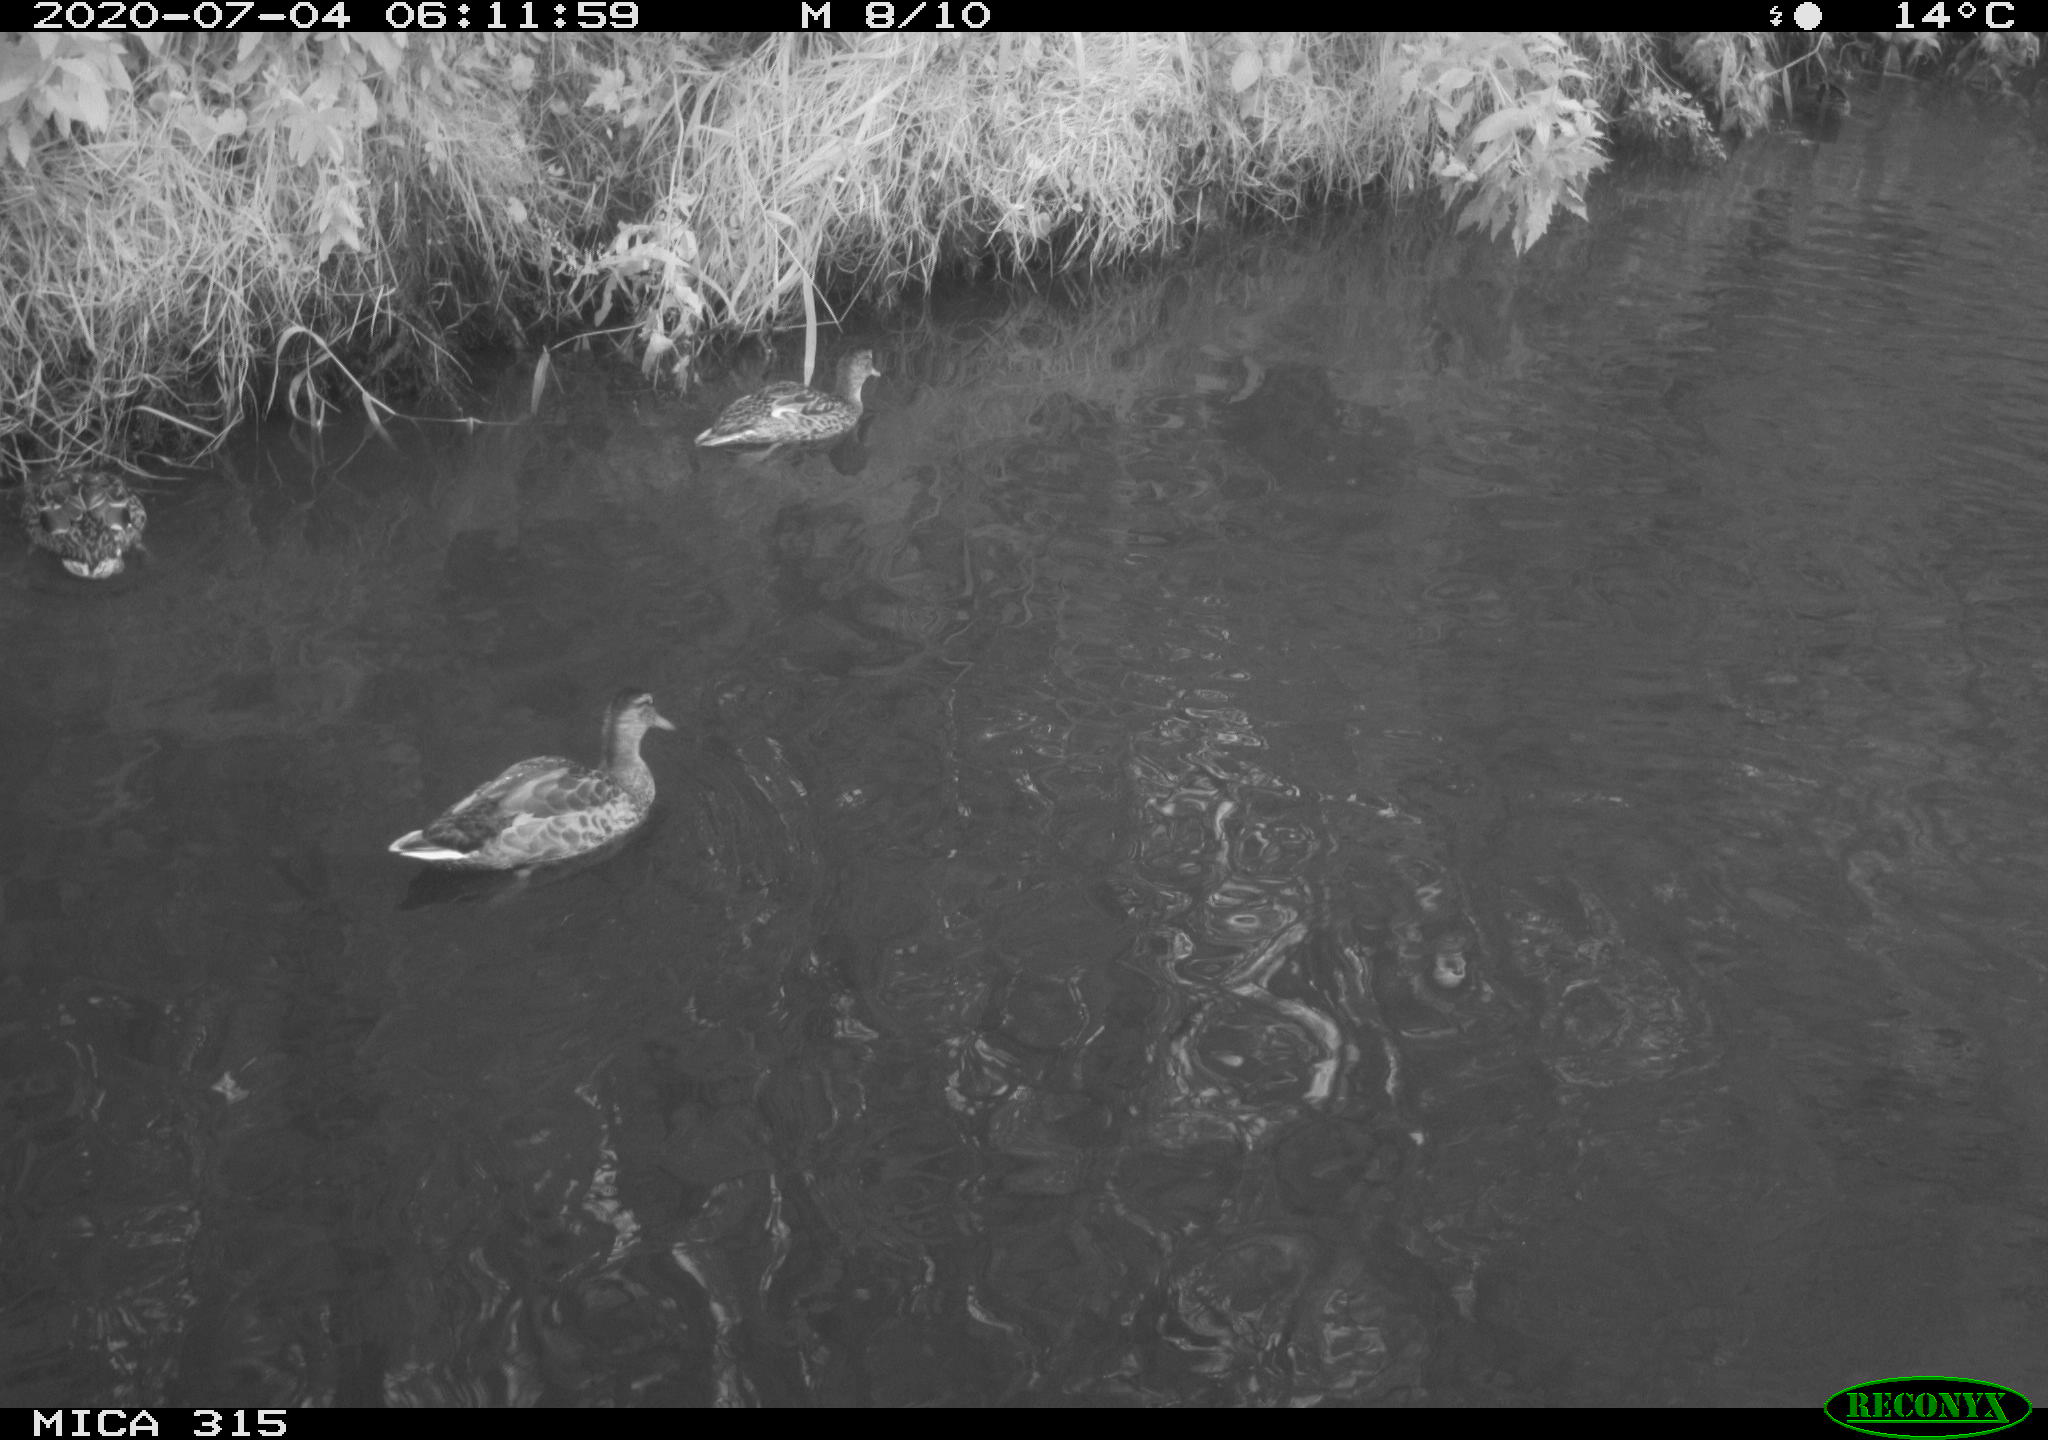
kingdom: Animalia
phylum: Chordata
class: Aves
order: Anseriformes
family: Anatidae
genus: Anas
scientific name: Anas platyrhynchos
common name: Mallard
